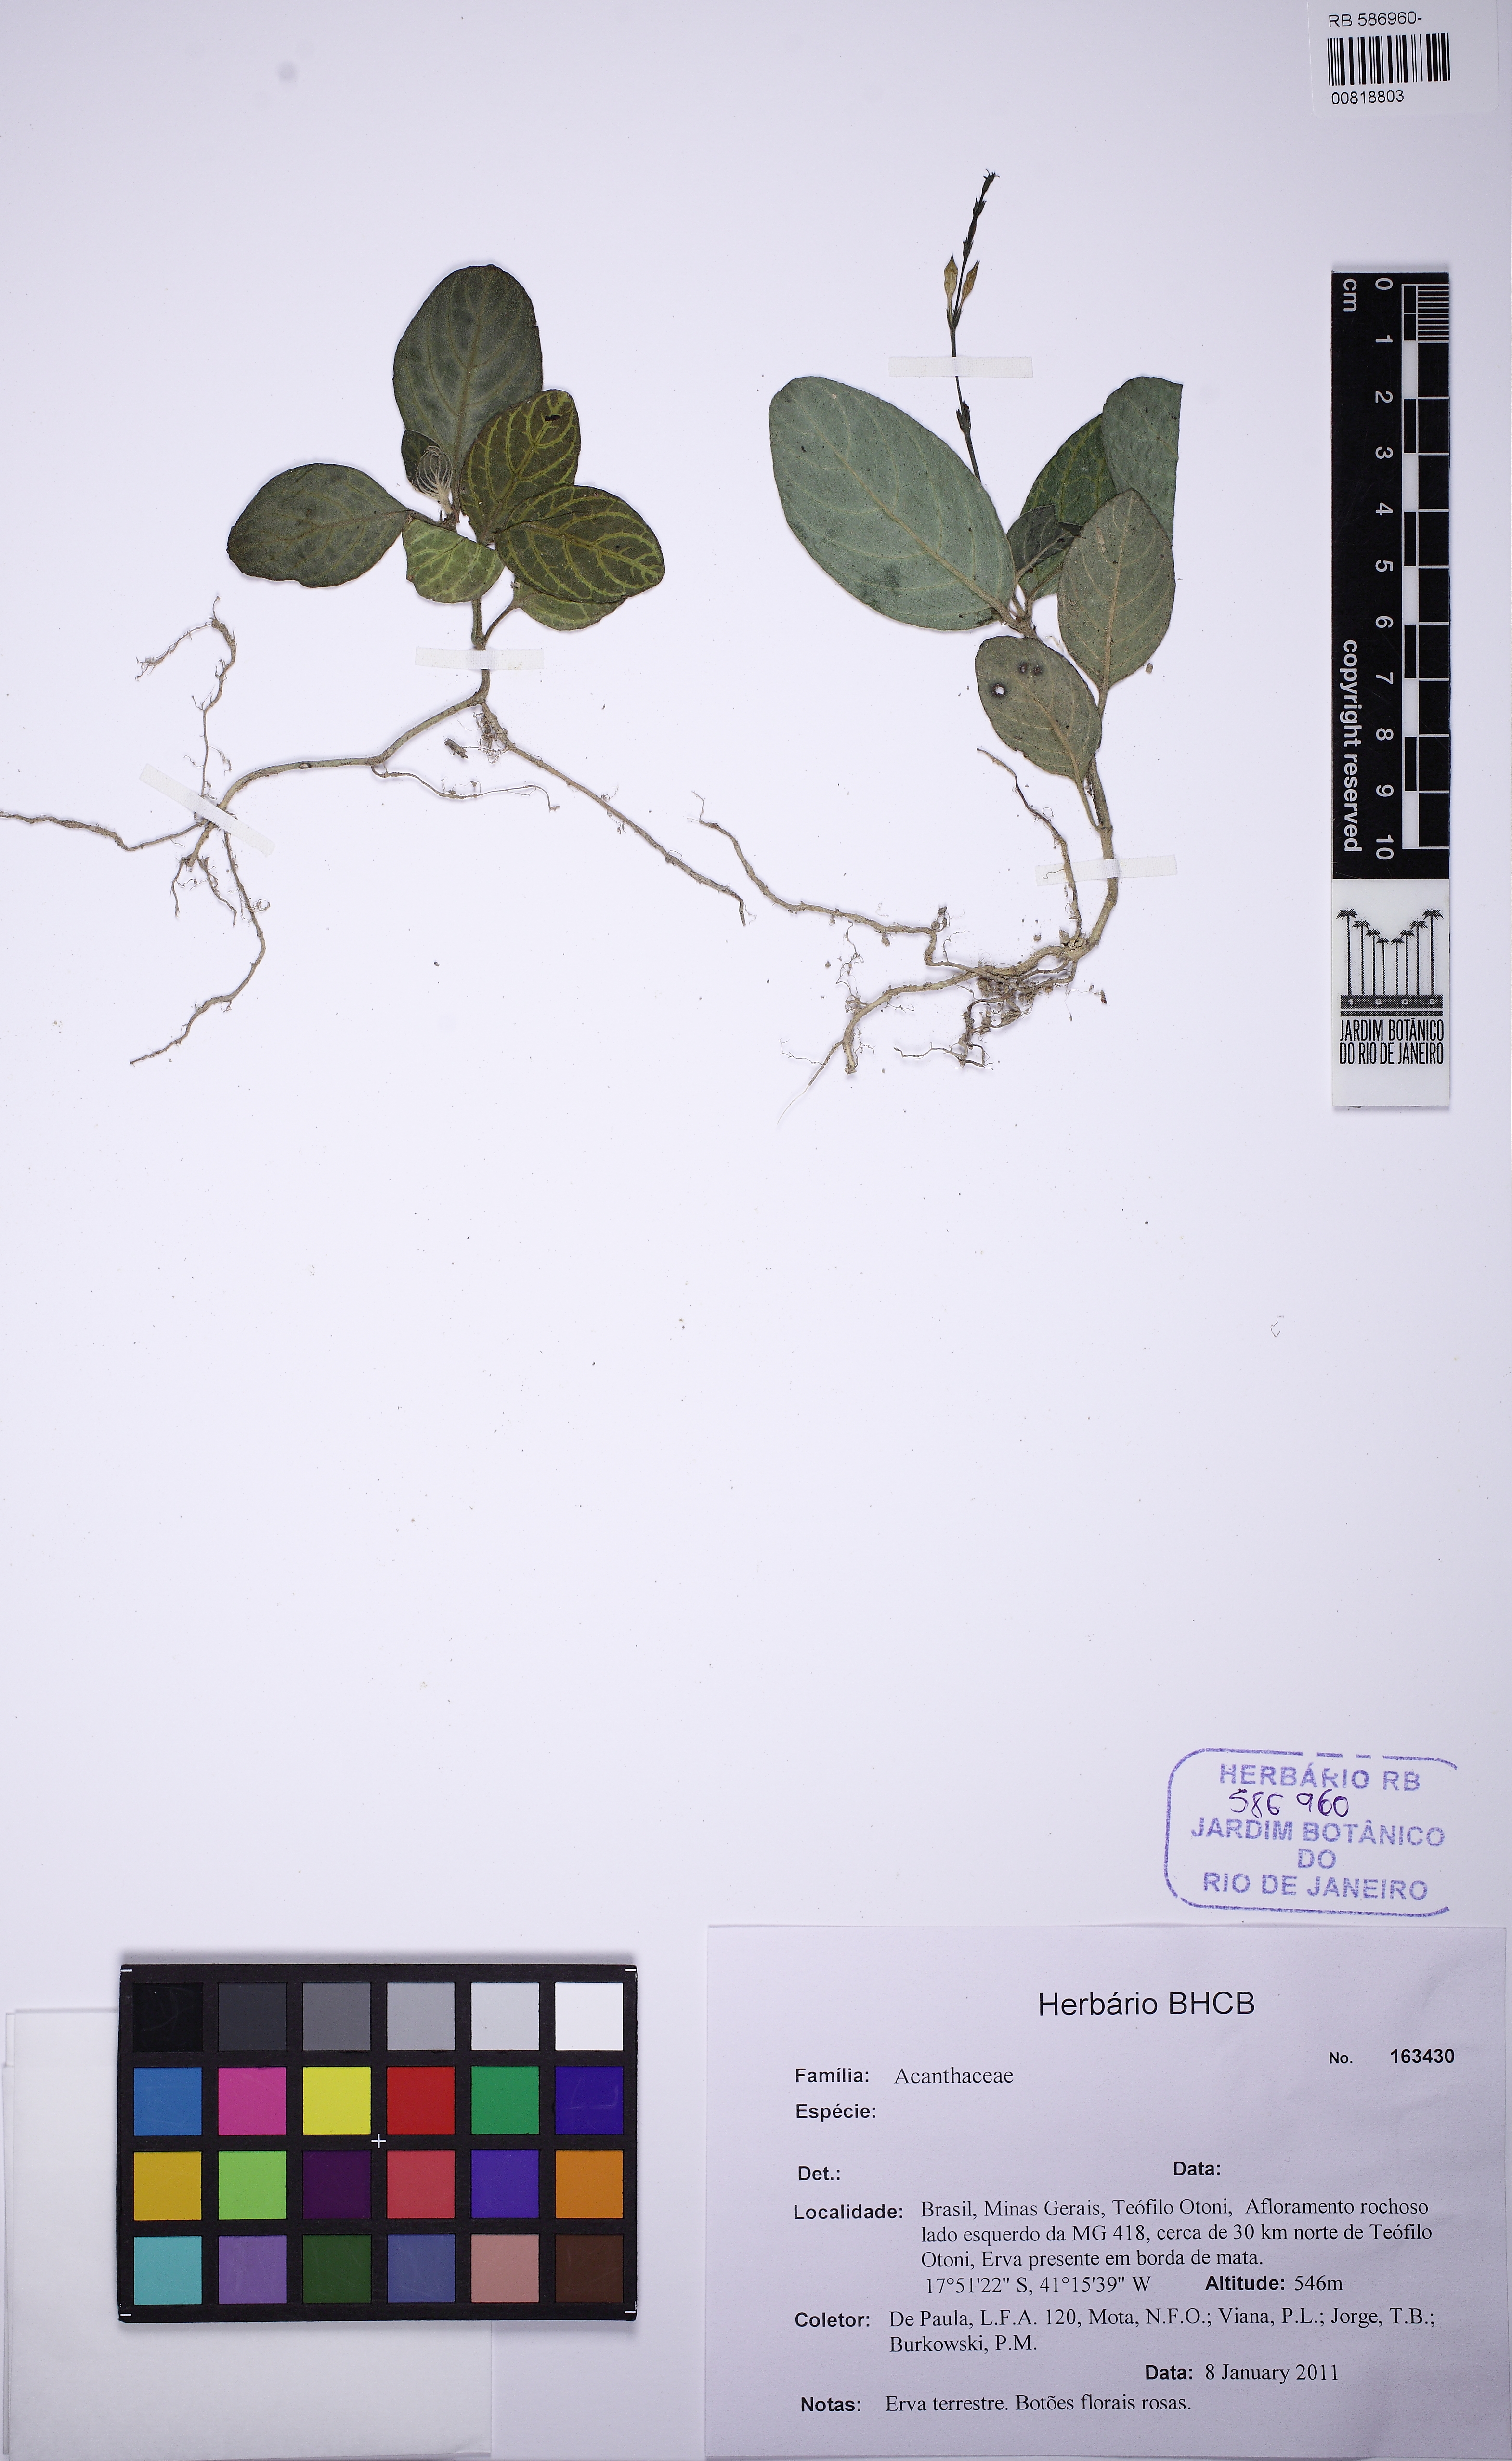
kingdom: Plantae
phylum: Tracheophyta
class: Magnoliopsida
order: Lamiales
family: Acanthaceae
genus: Chamaeranthemum
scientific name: Chamaeranthemum
